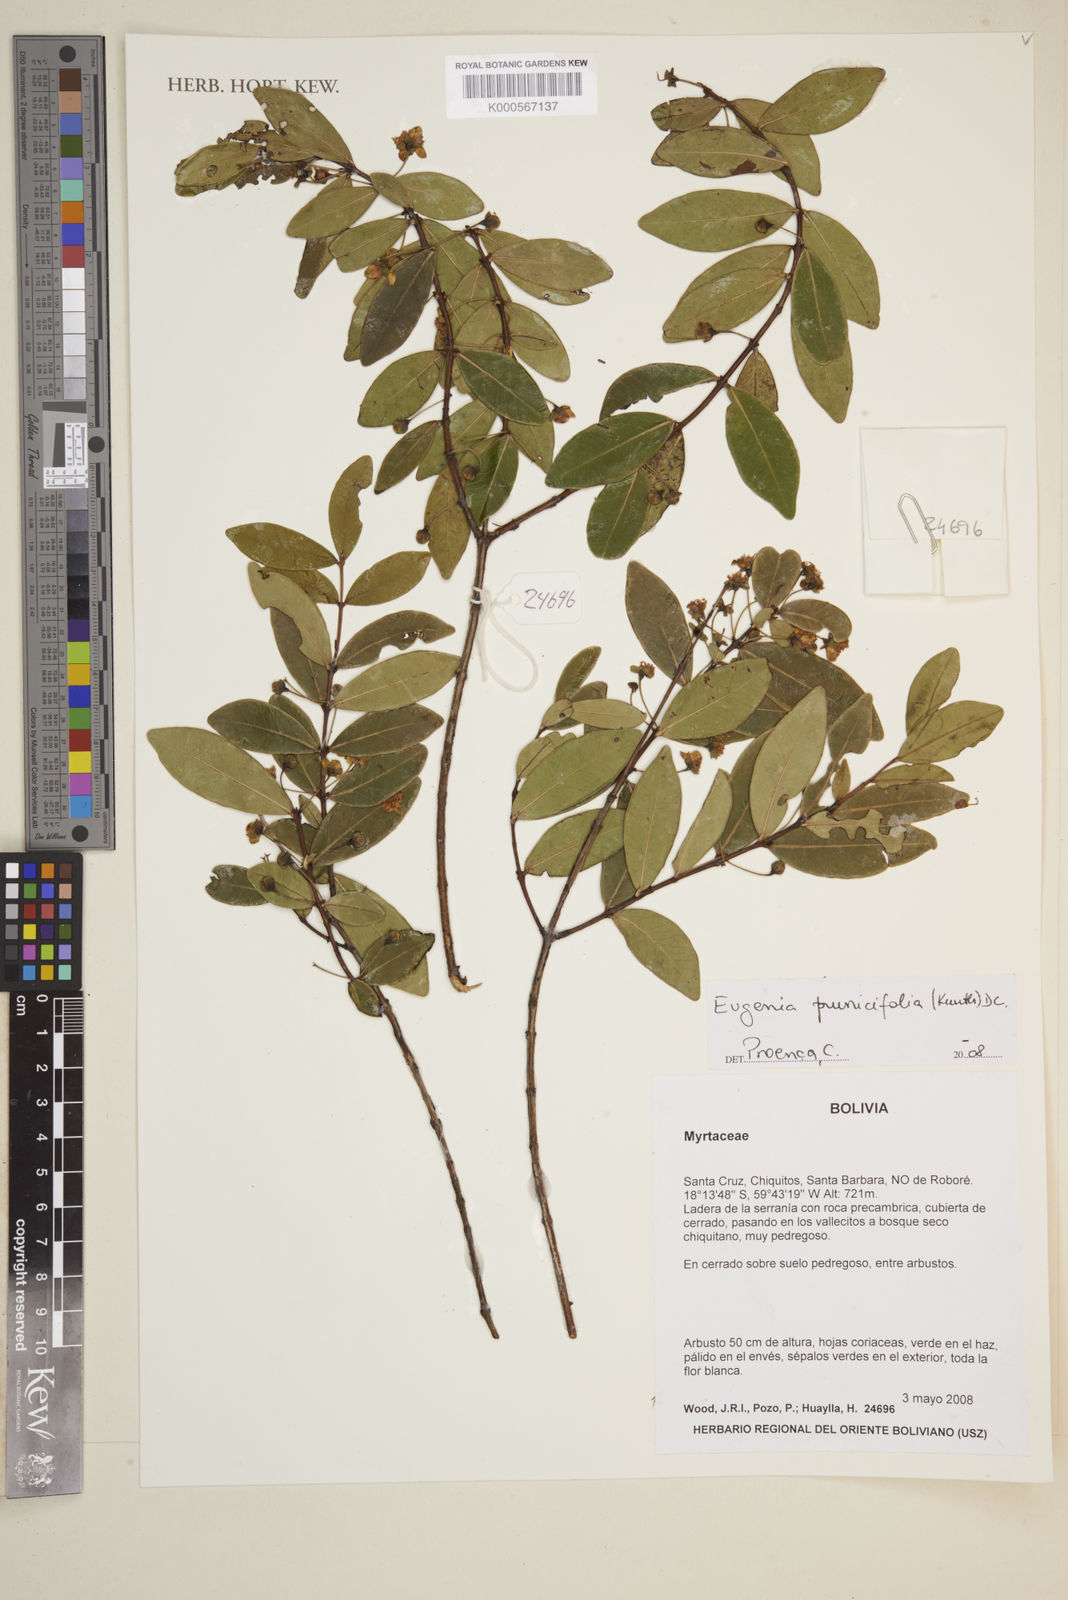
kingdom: Plantae
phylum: Tracheophyta
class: Magnoliopsida
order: Myrtales
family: Myrtaceae
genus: Eugenia
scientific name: Eugenia punicifolia
